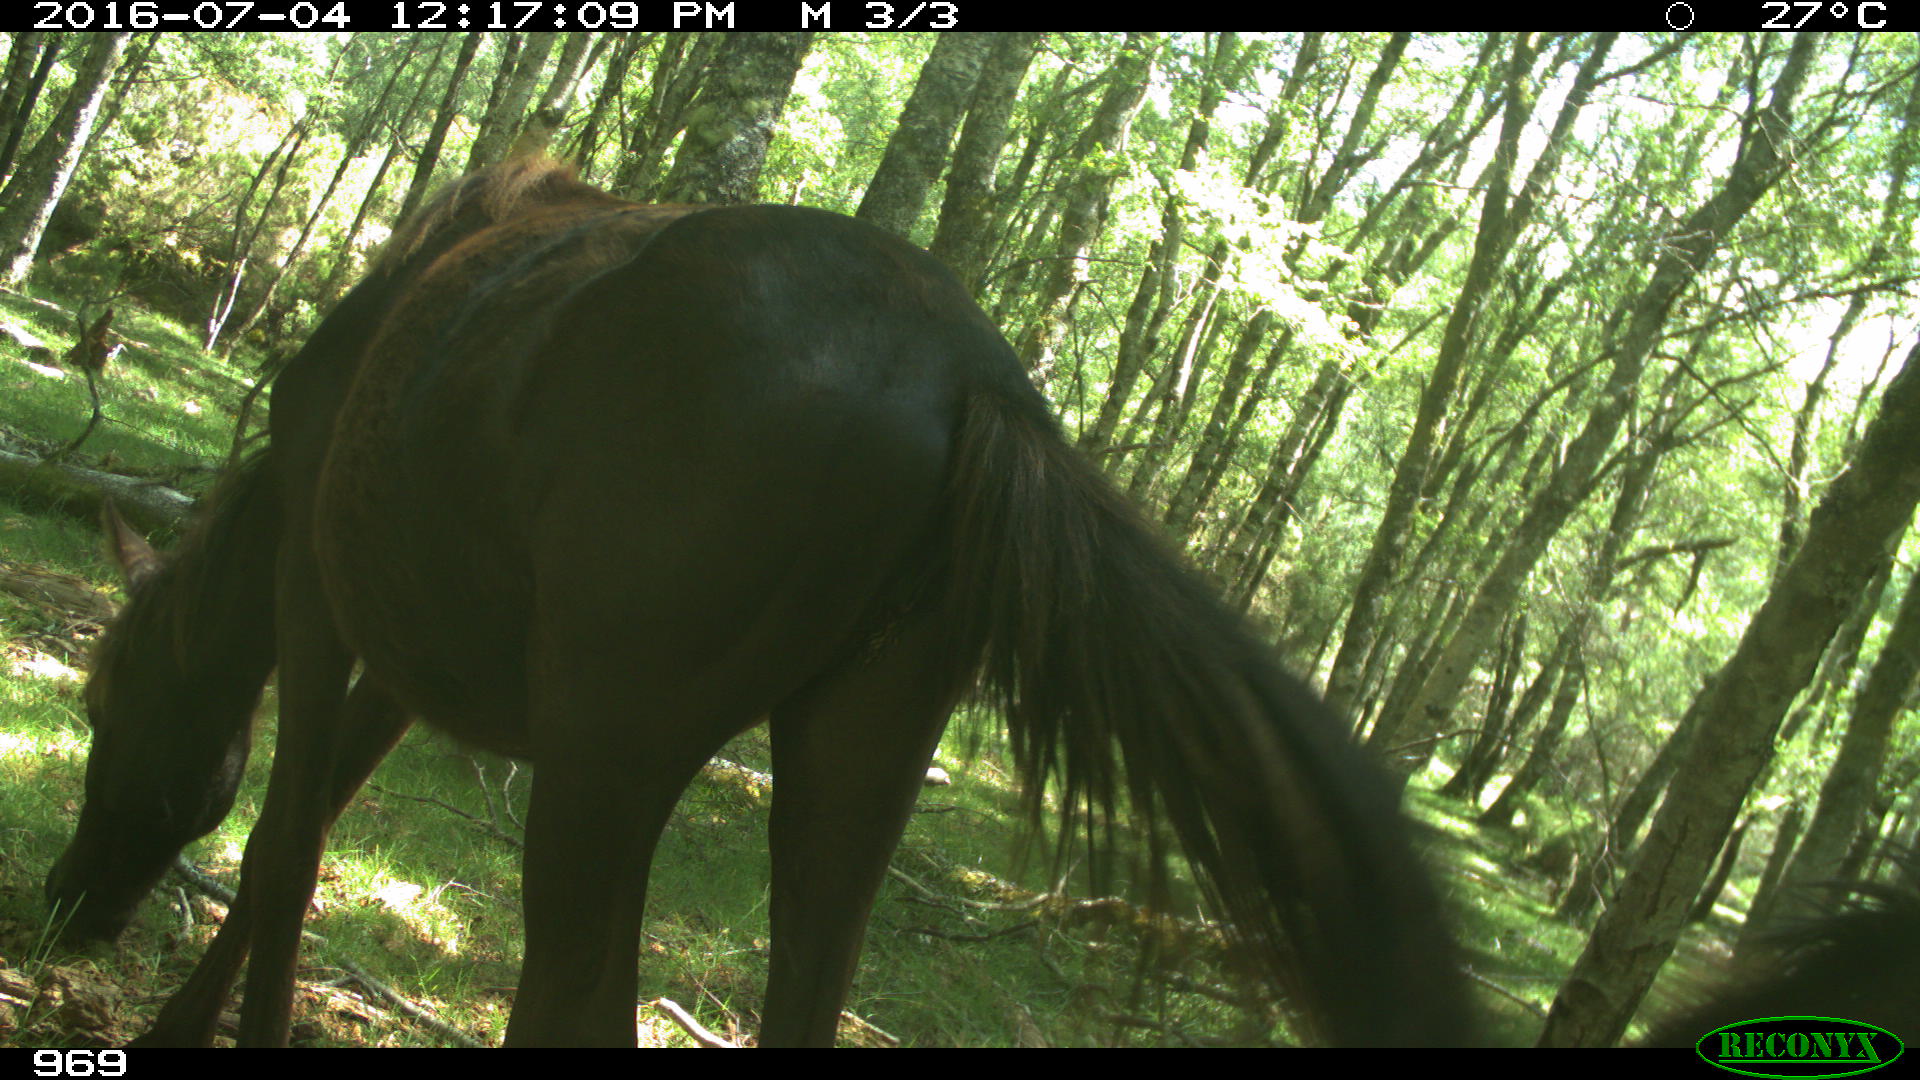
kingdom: Animalia
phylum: Chordata
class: Mammalia
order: Perissodactyla
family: Equidae
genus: Equus
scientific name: Equus caballus
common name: Horse
